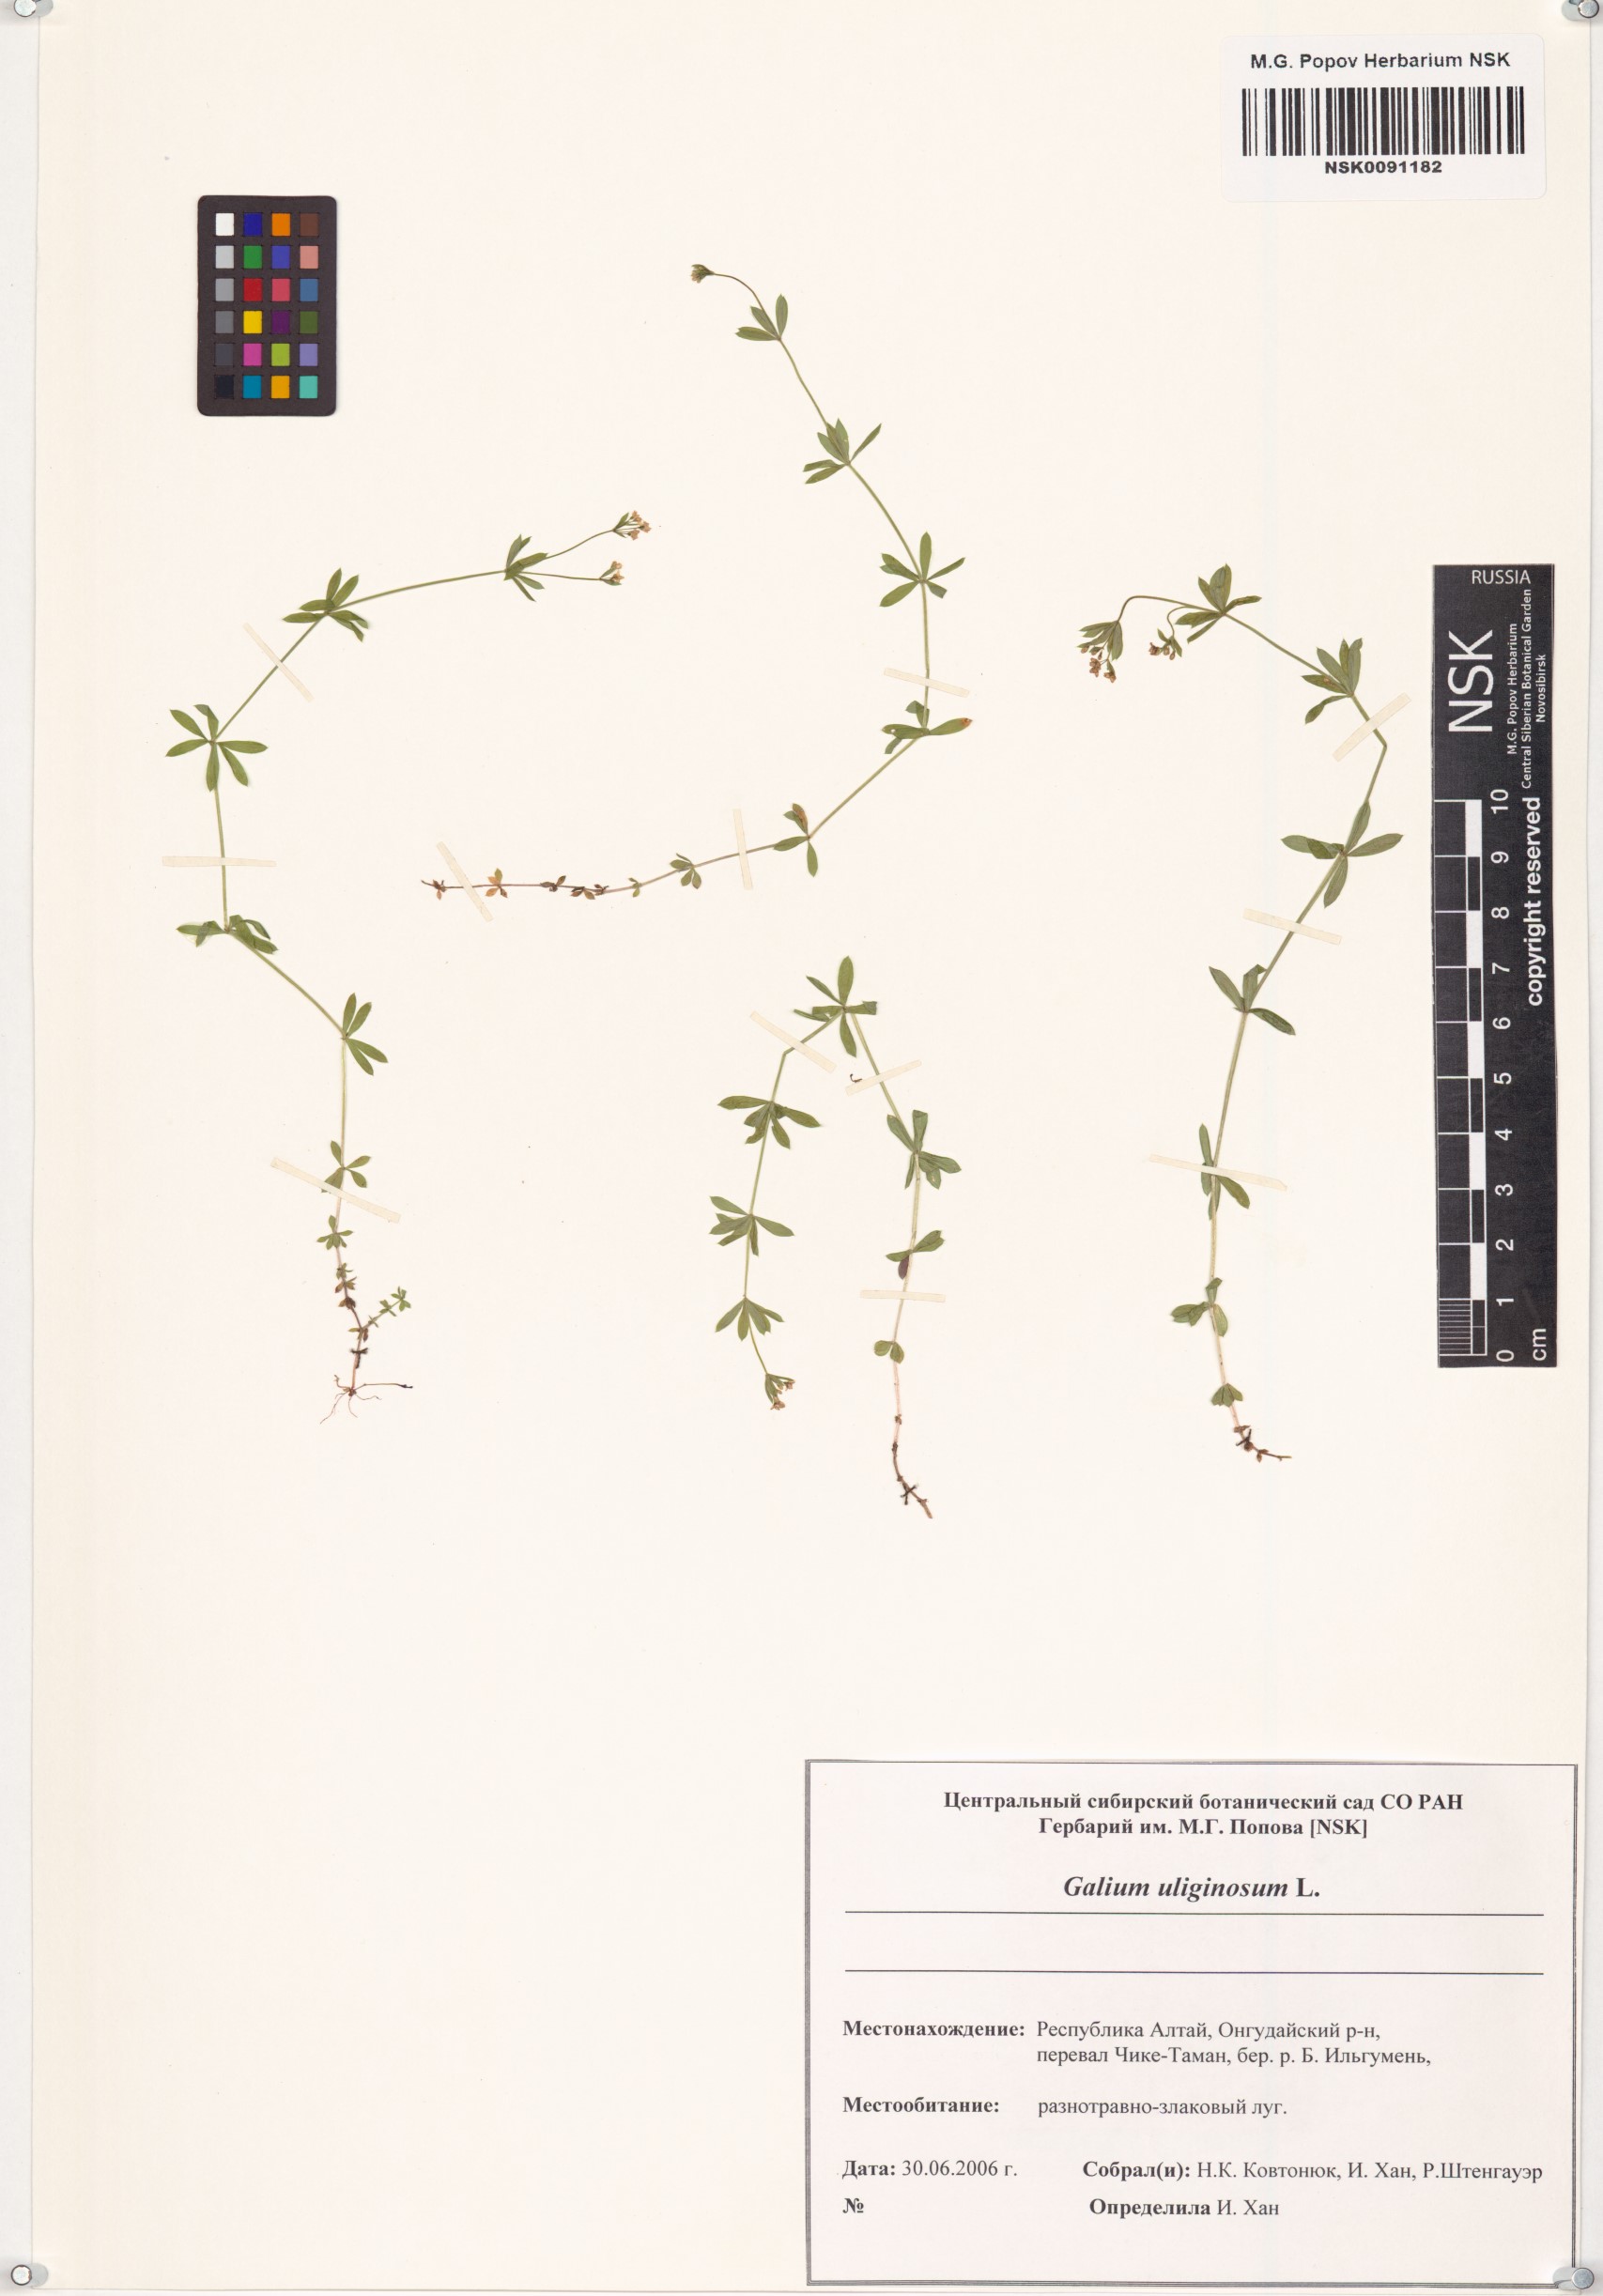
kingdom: Plantae
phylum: Tracheophyta
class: Magnoliopsida
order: Gentianales
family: Rubiaceae
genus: Galium
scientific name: Galium uliginosum
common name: Fen bedstraw
